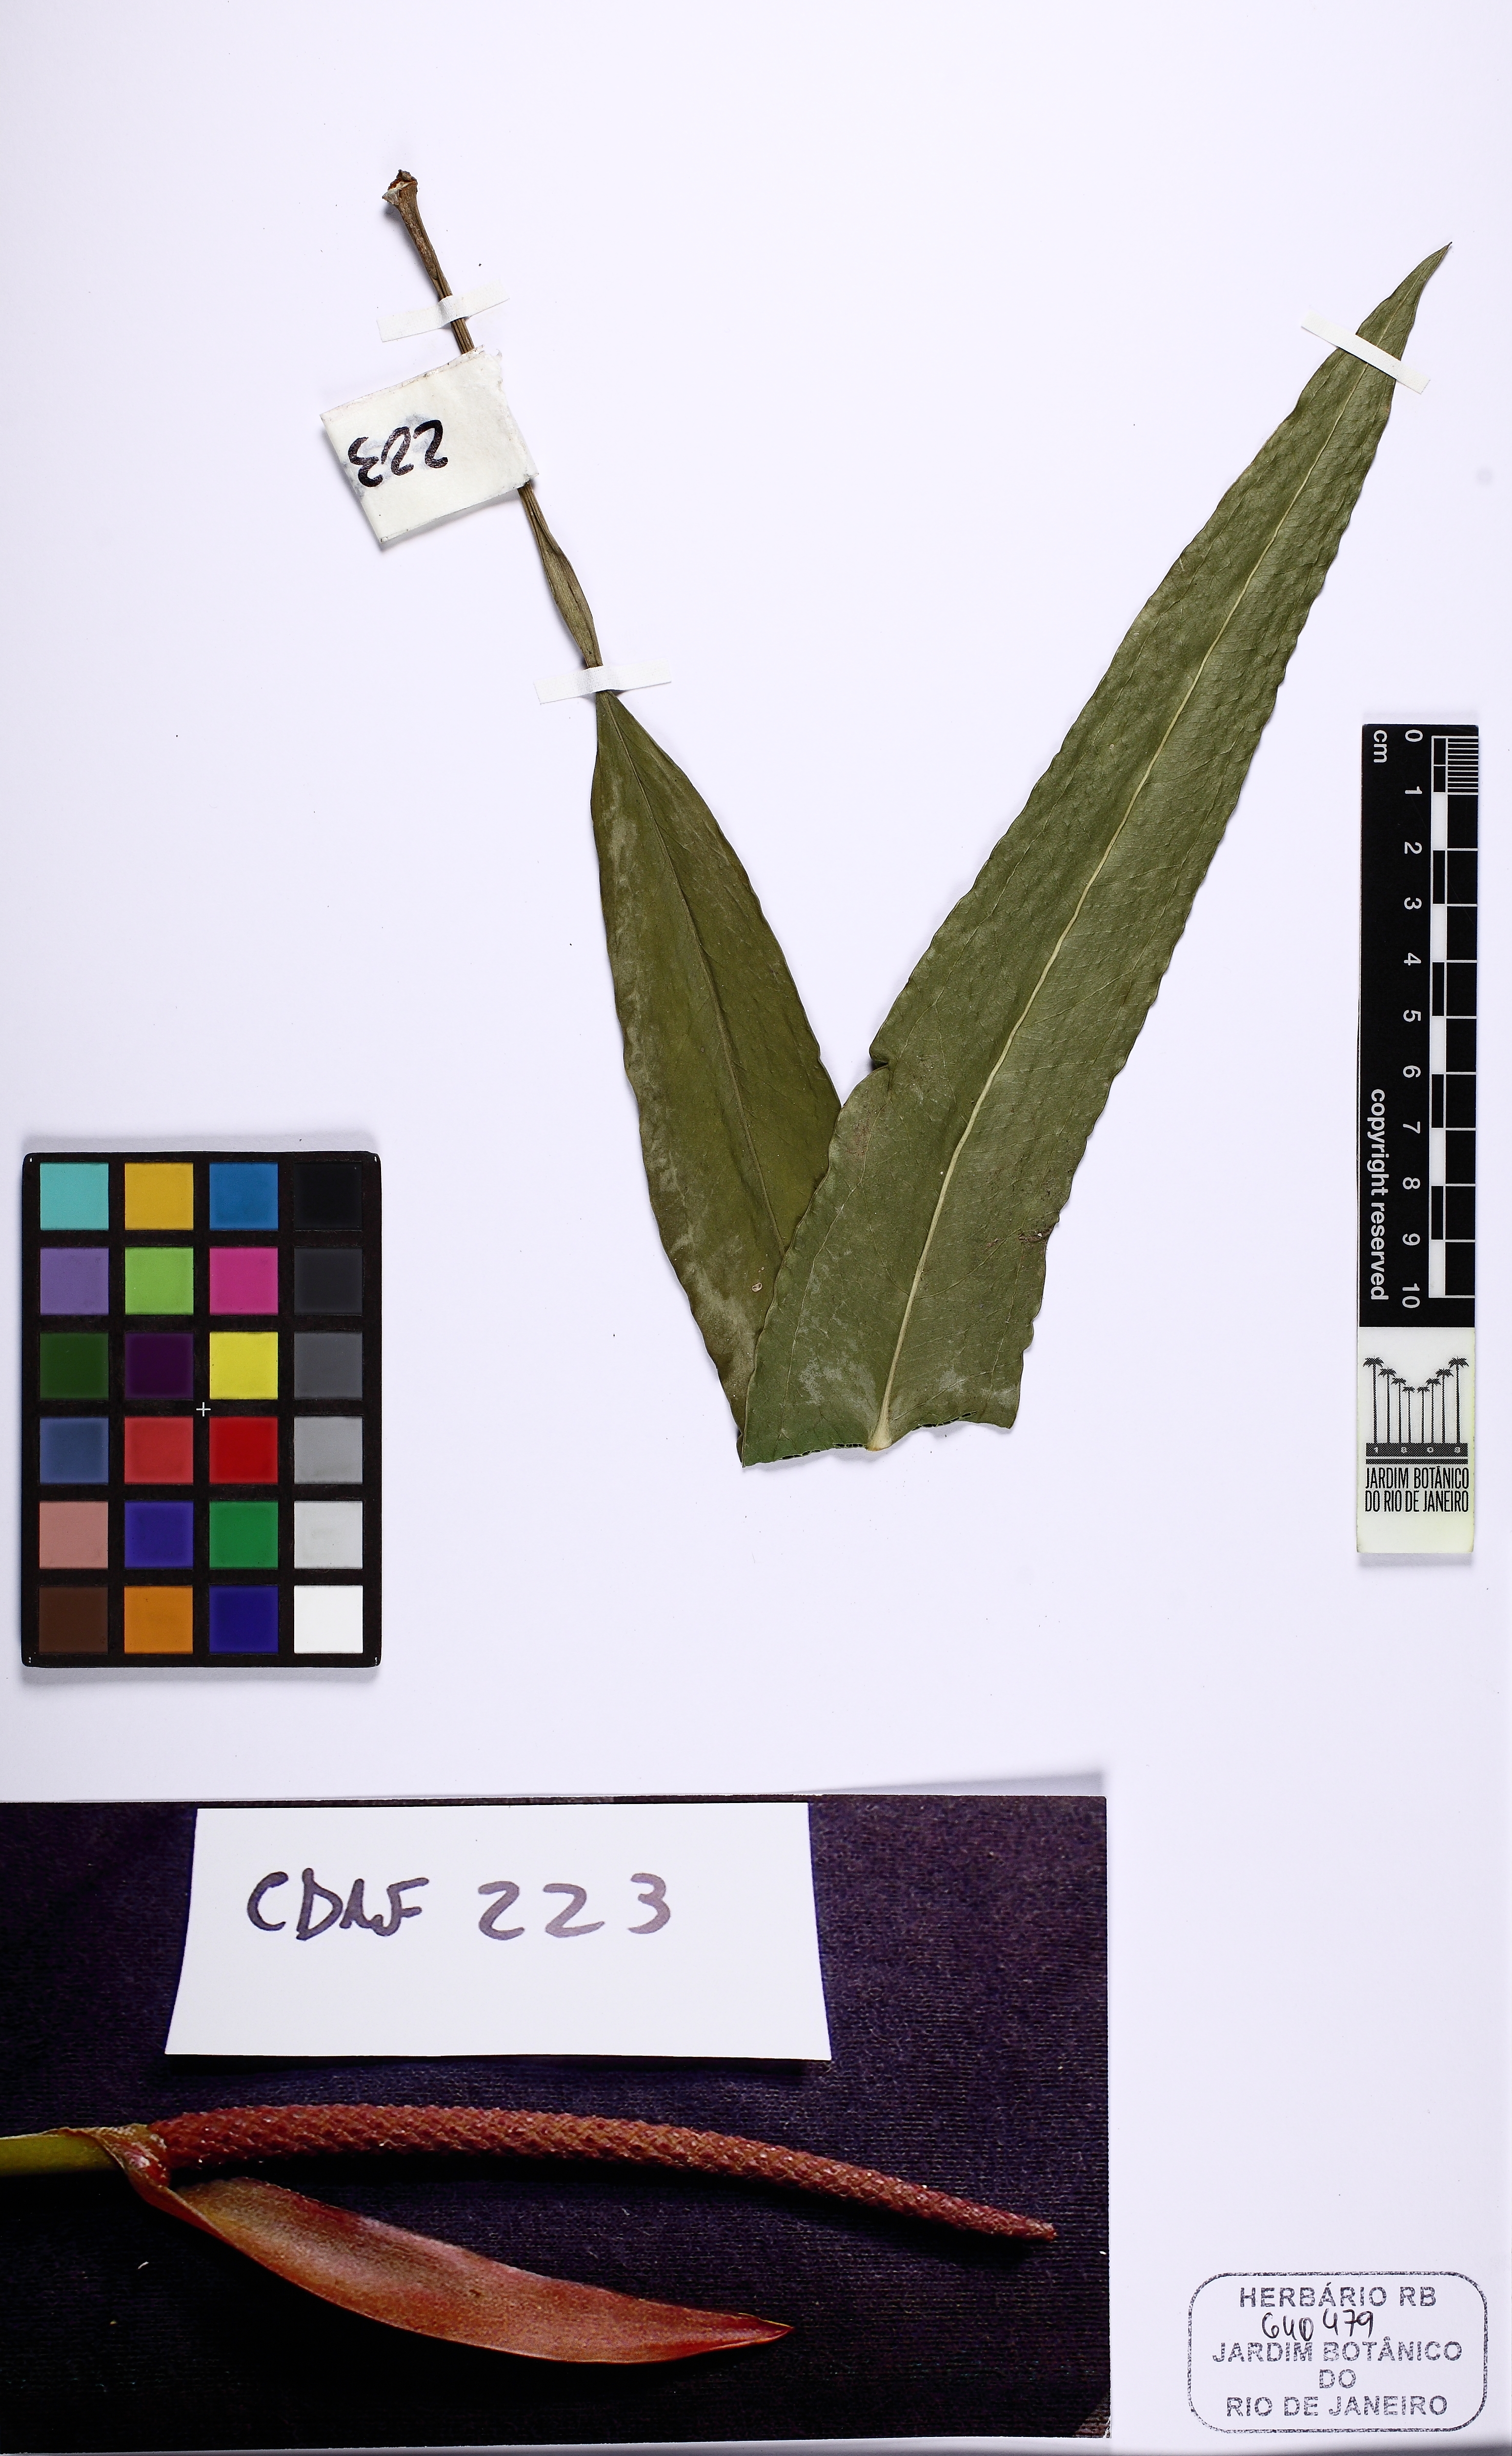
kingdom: Plantae
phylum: Tracheophyta
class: Liliopsida
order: Alismatales
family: Araceae
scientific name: Araceae
